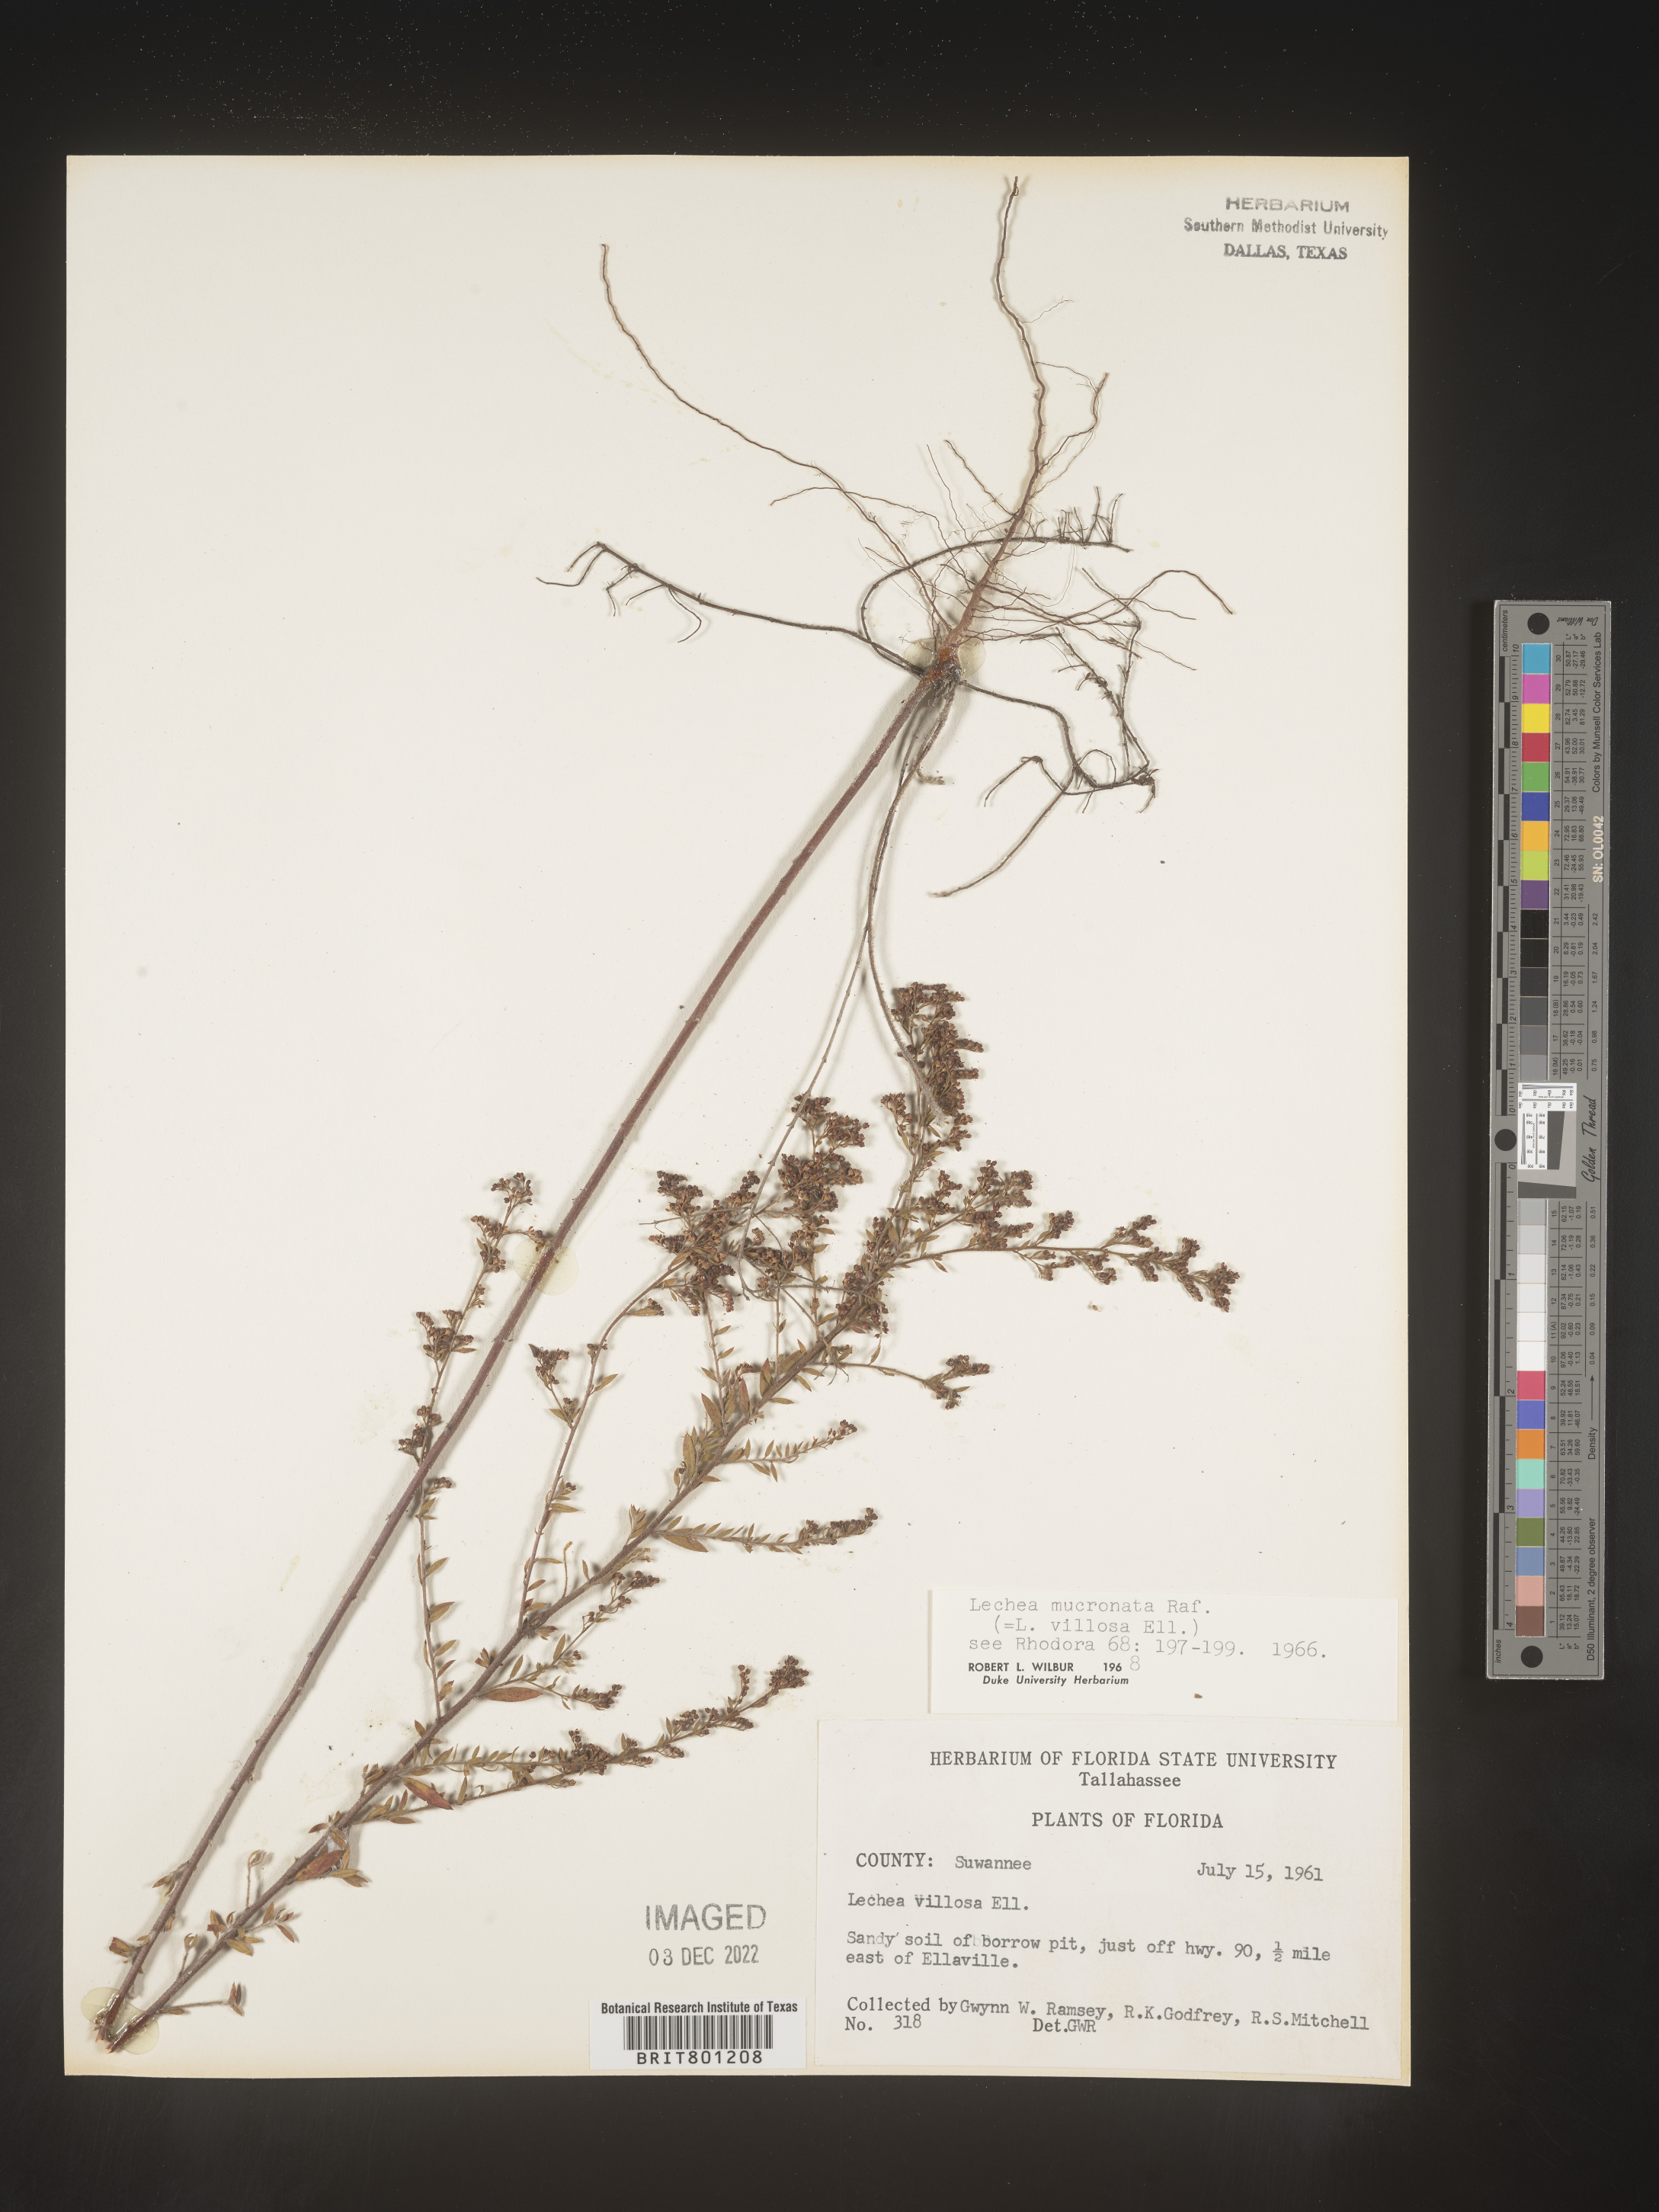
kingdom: Plantae
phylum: Tracheophyta
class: Magnoliopsida
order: Malvales
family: Cistaceae
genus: Lechea
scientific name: Lechea mucronata
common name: Hairy pinweed
